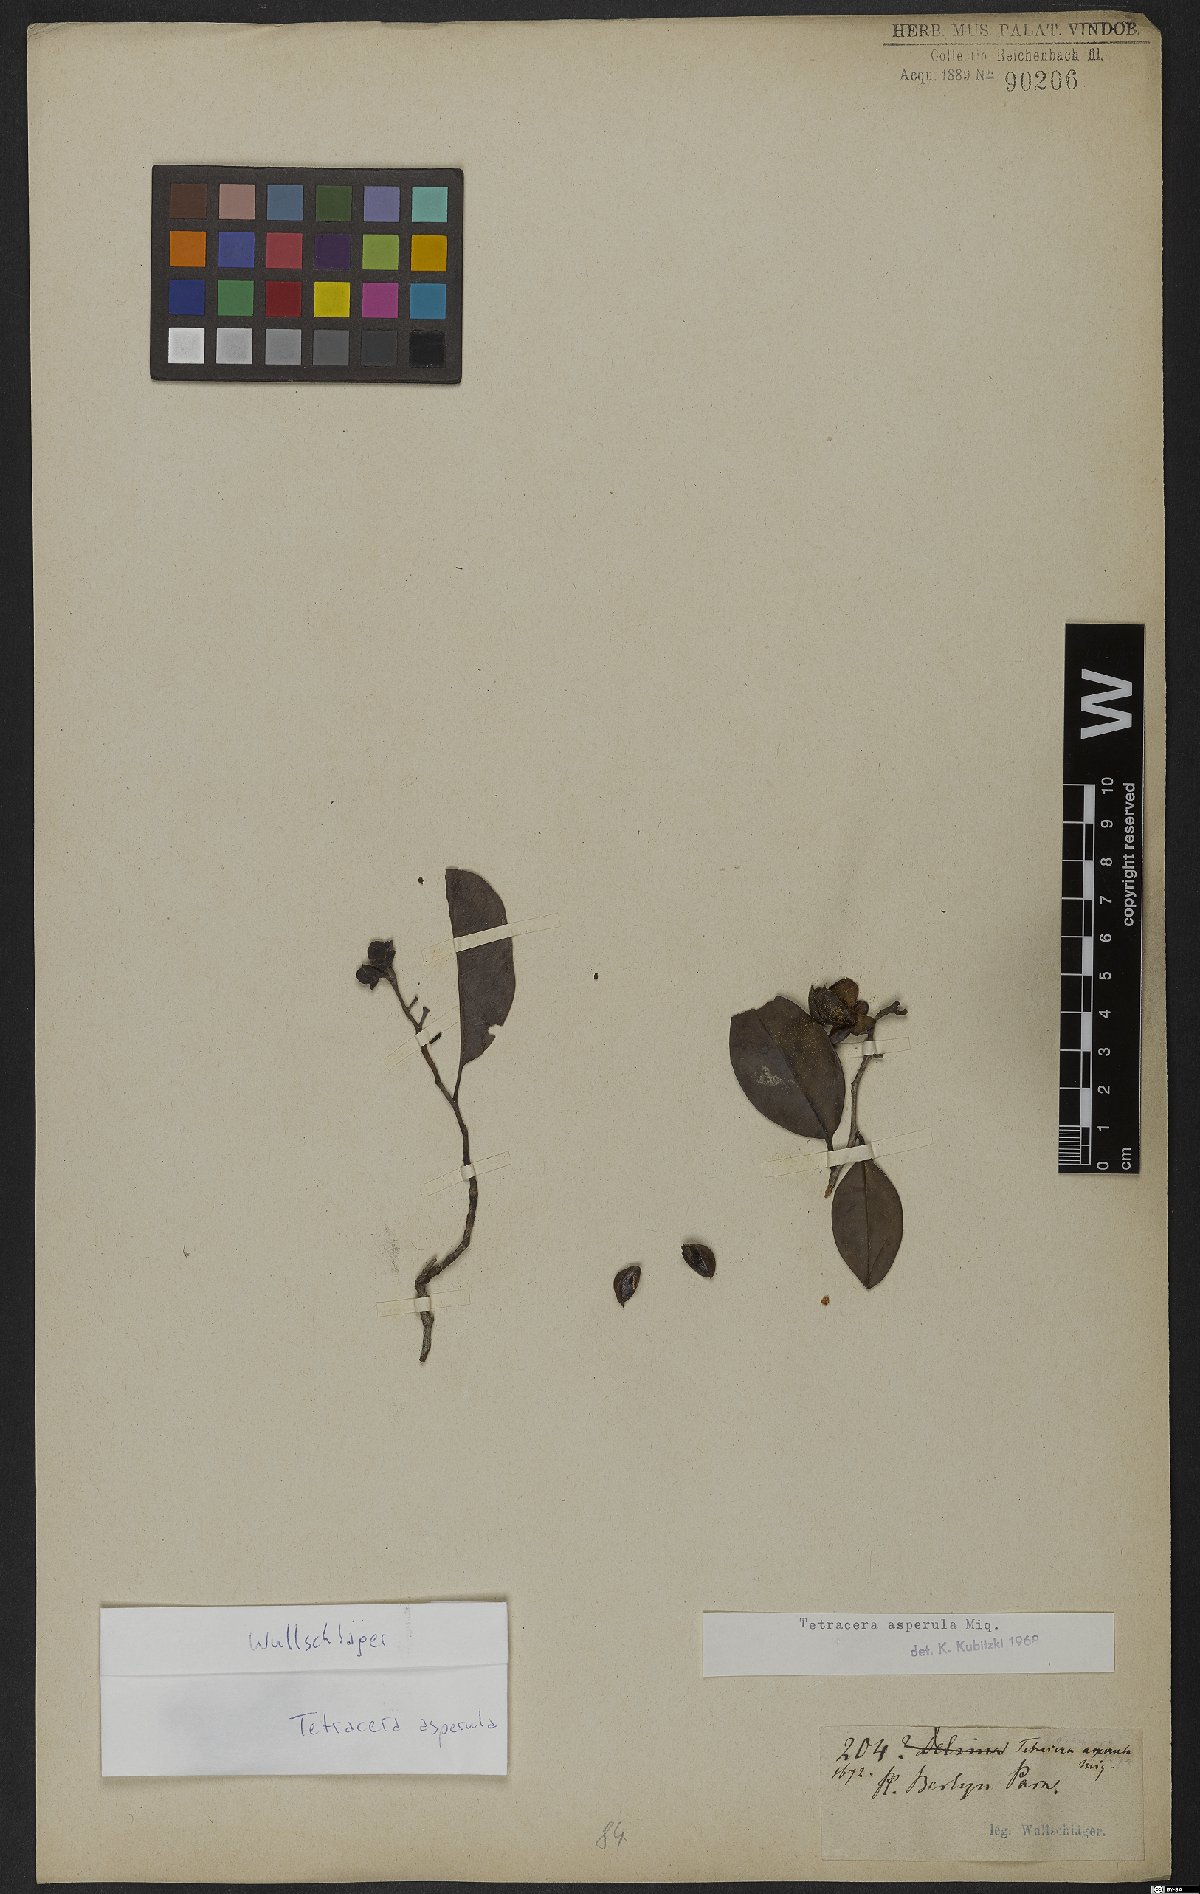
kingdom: Plantae
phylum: Tracheophyta
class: Magnoliopsida
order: Dilleniales
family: Dilleniaceae
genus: Tetracera
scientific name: Tetracera asperula
